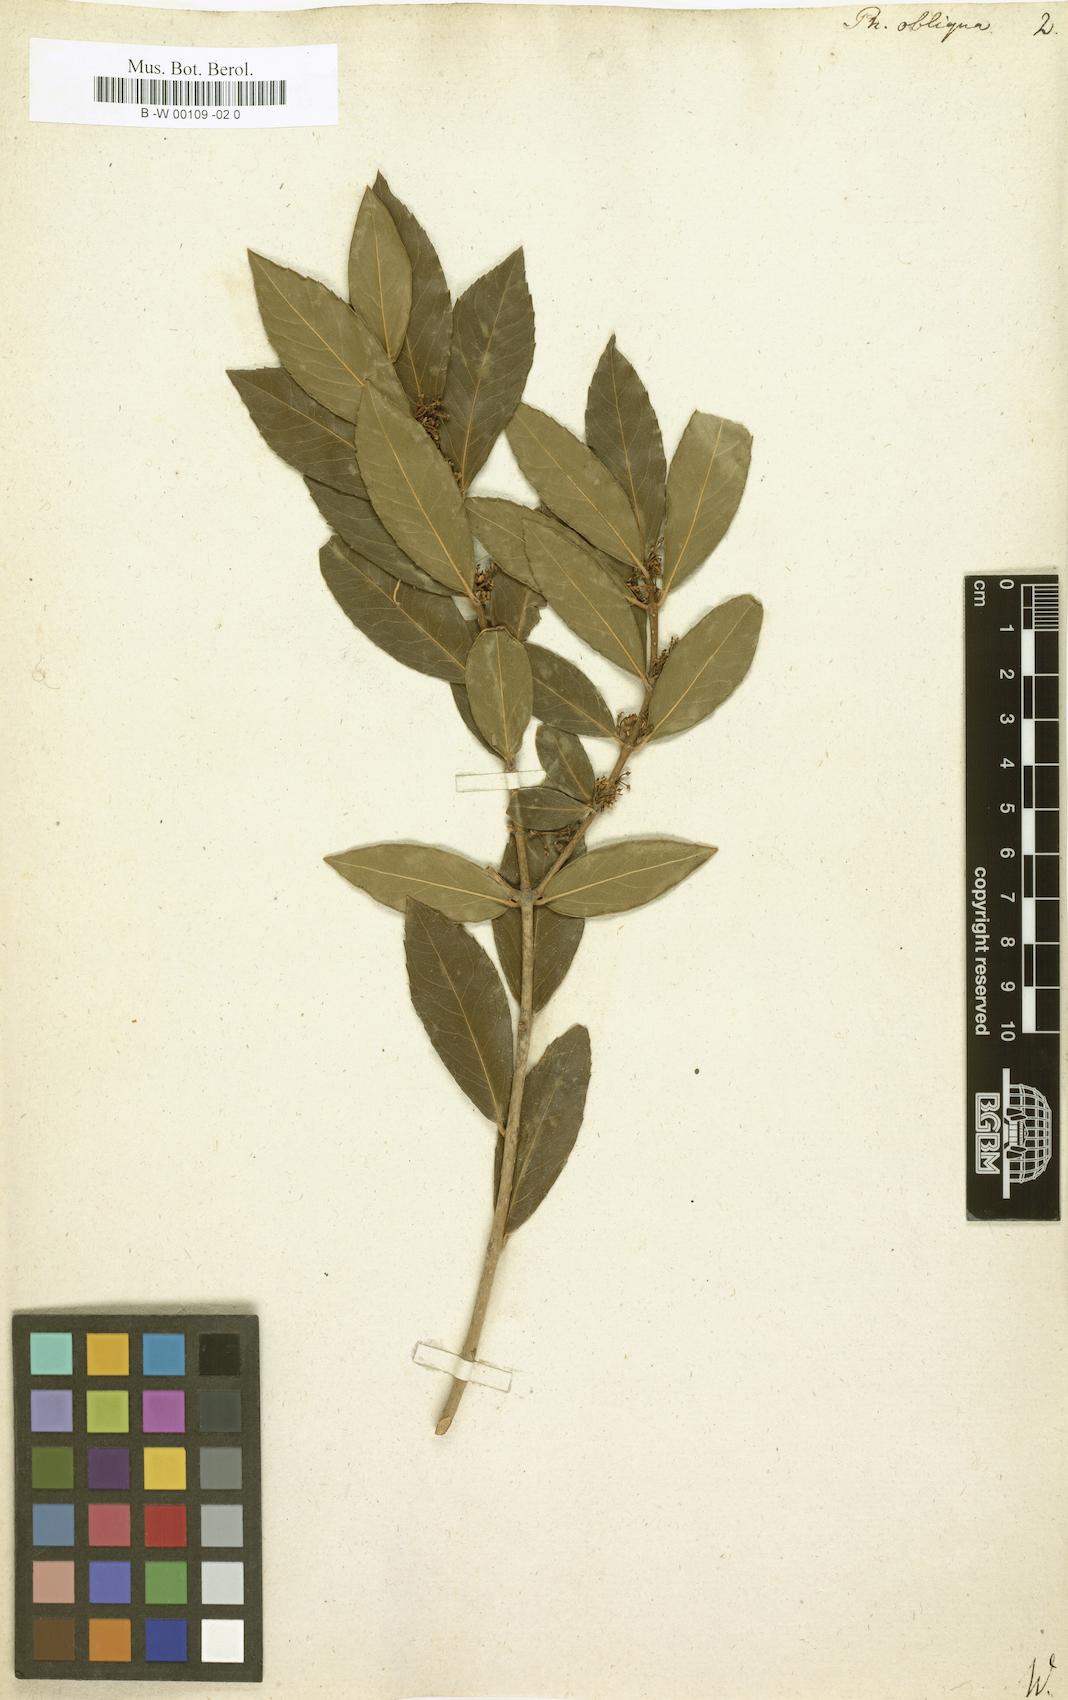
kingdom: Plantae
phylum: Tracheophyta
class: Magnoliopsida
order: Lamiales
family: Oleaceae
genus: Phillyrea
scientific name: Phillyrea latifolia
